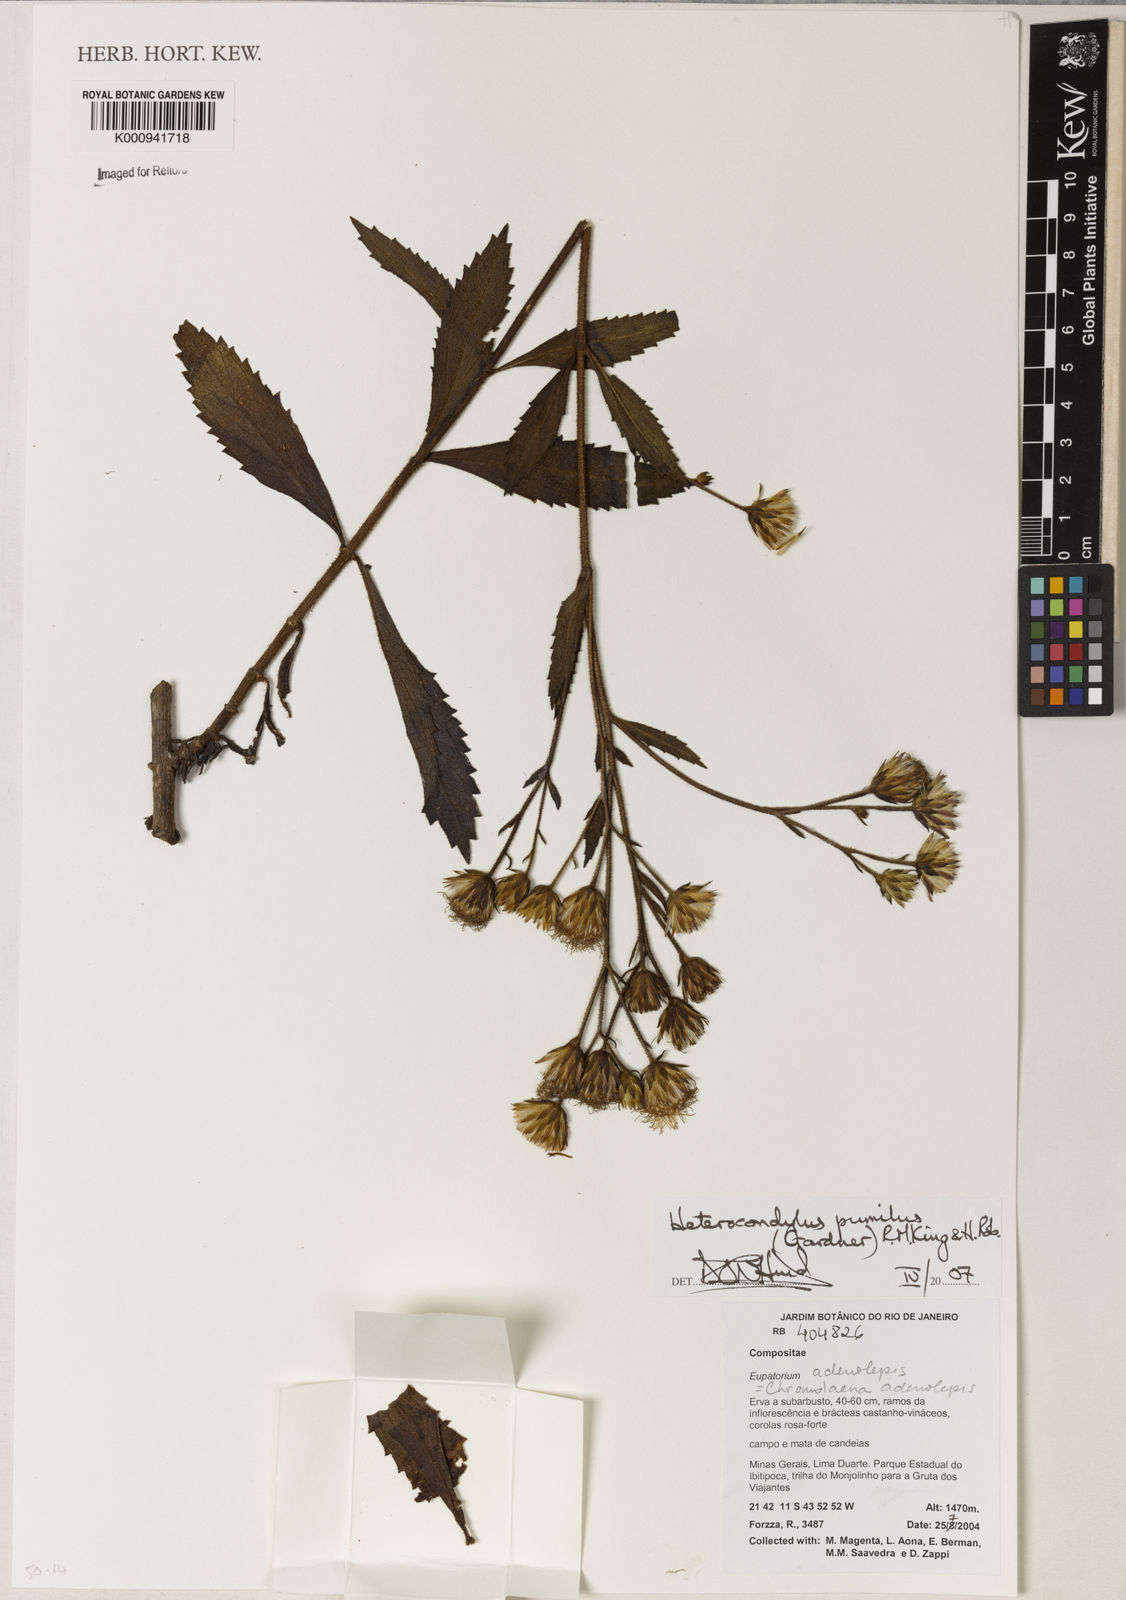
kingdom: Plantae
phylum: Tracheophyta
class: Magnoliopsida
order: Asterales
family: Asteraceae
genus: Heterocondylus
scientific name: Heterocondylus pumilus
